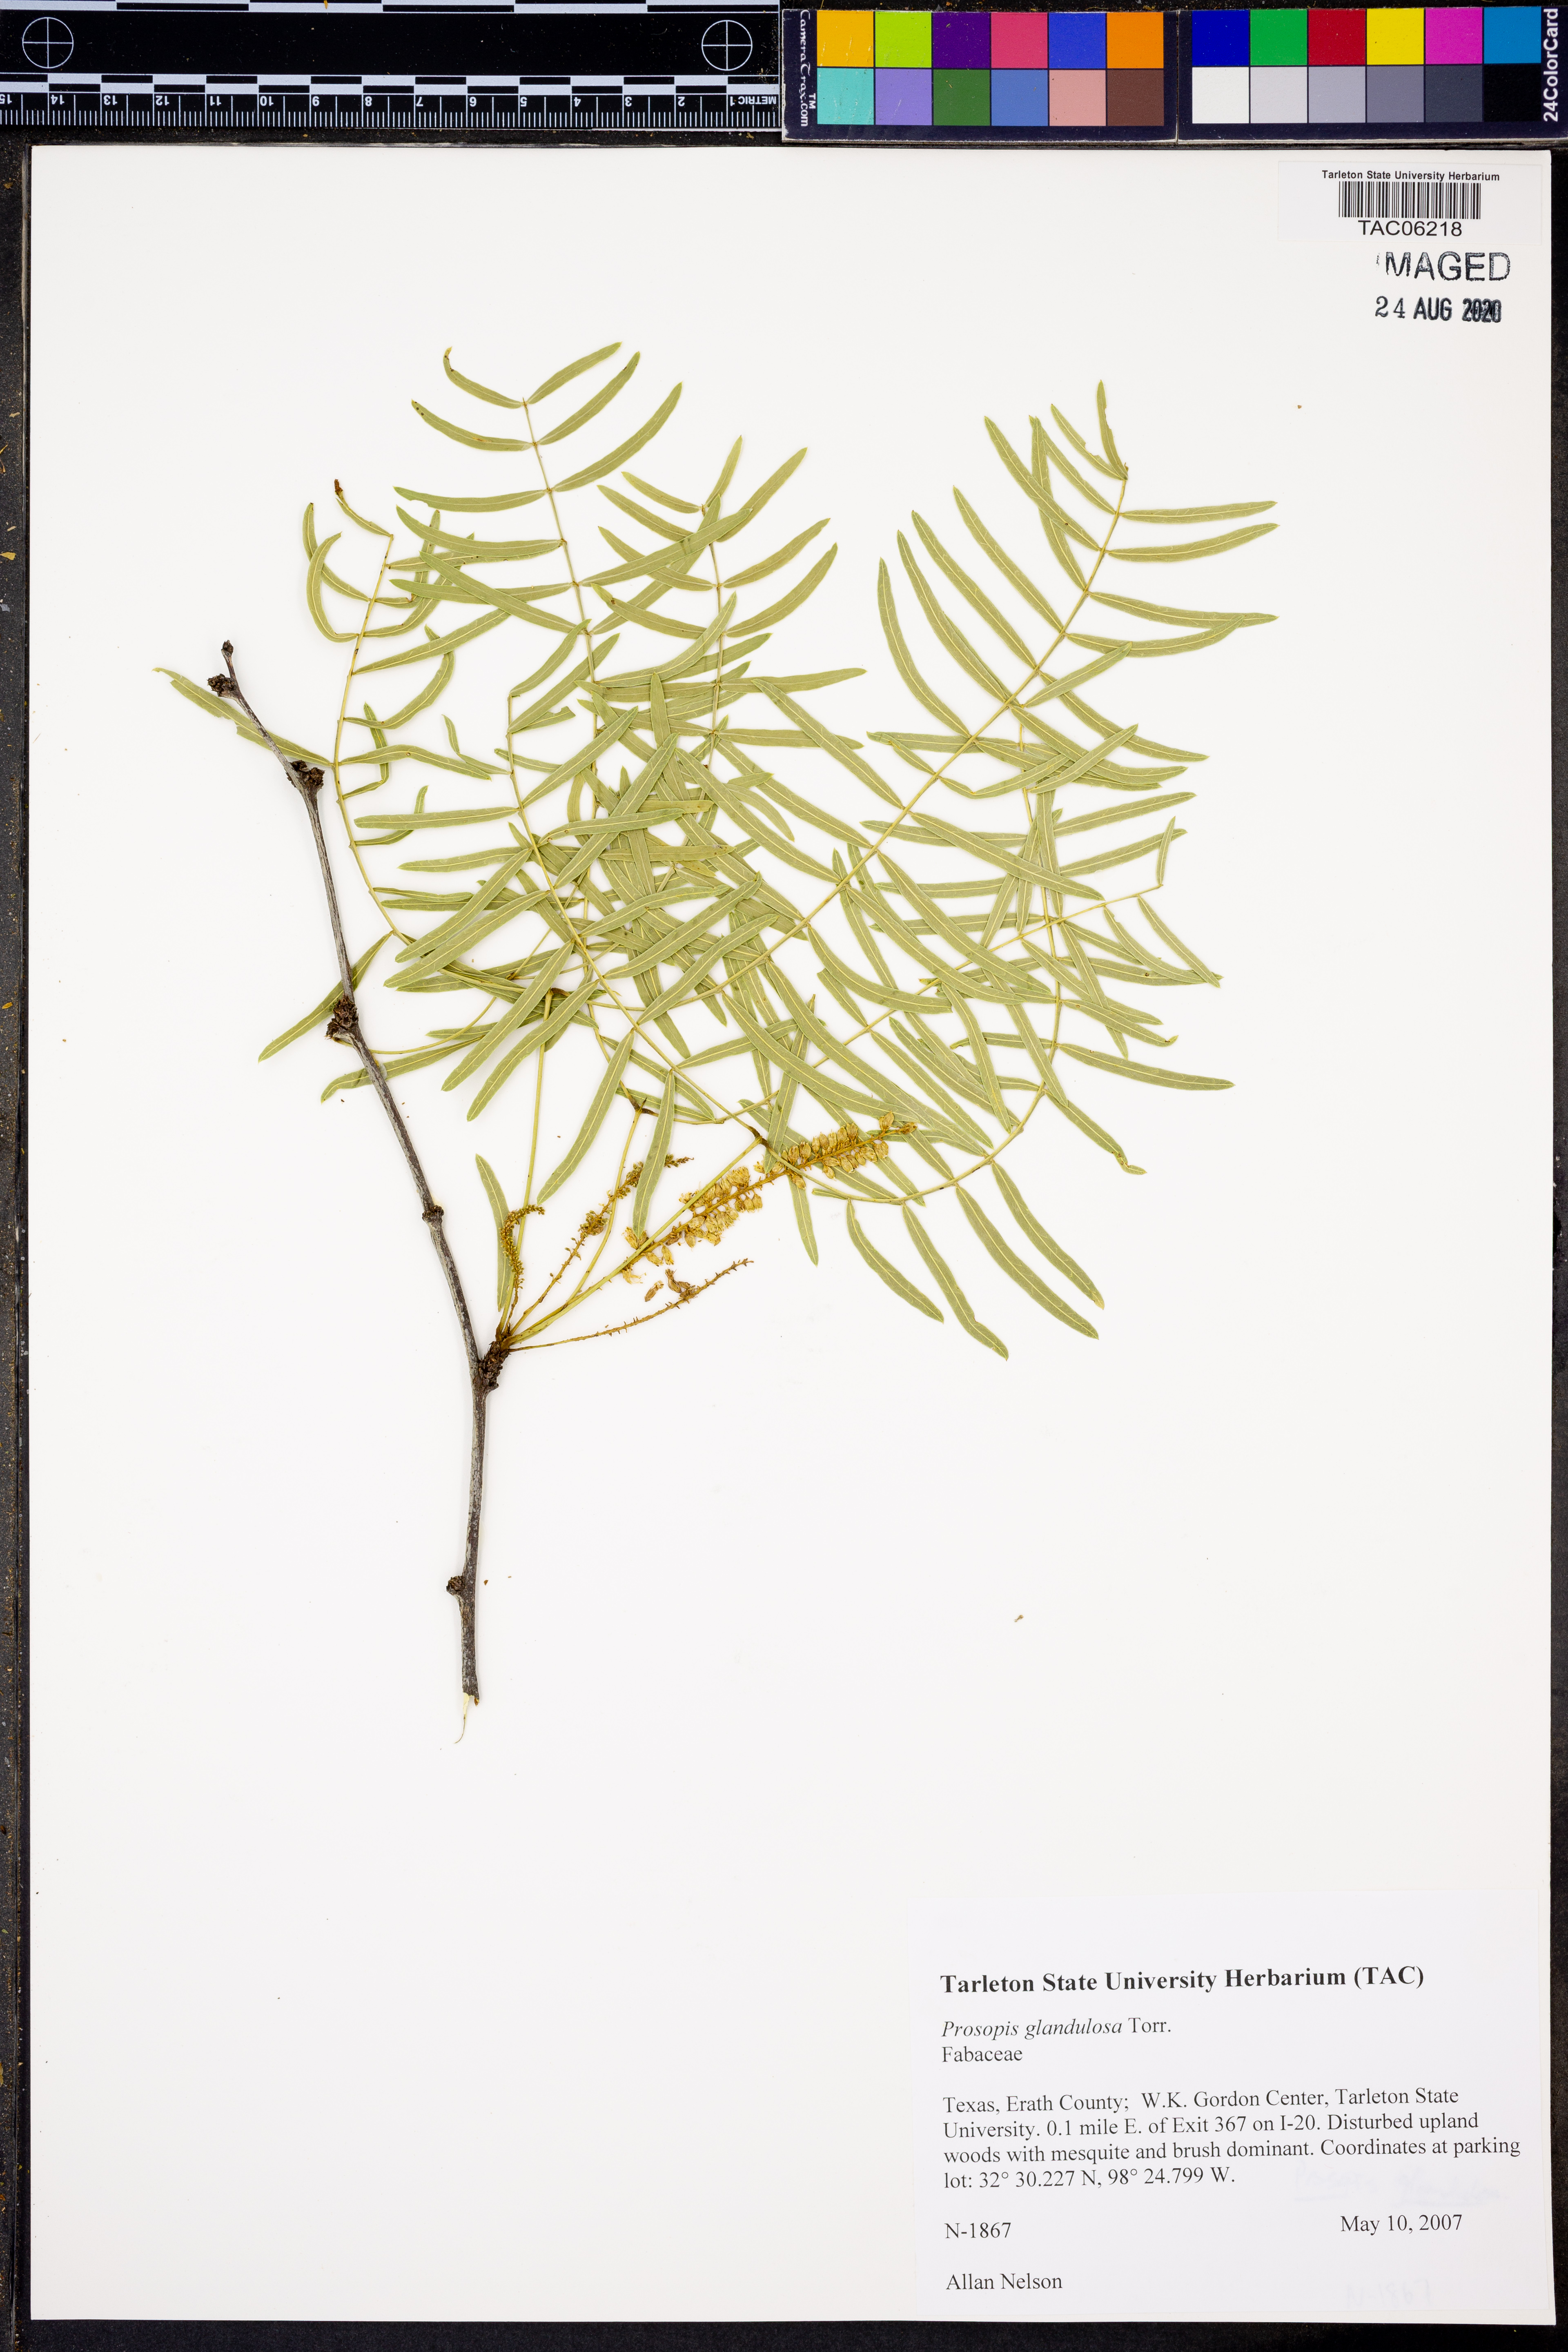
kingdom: Plantae
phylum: Tracheophyta
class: Magnoliopsida
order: Fabales
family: Fabaceae
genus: Prosopis
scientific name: Prosopis glandulosa
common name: Honey mesquite
